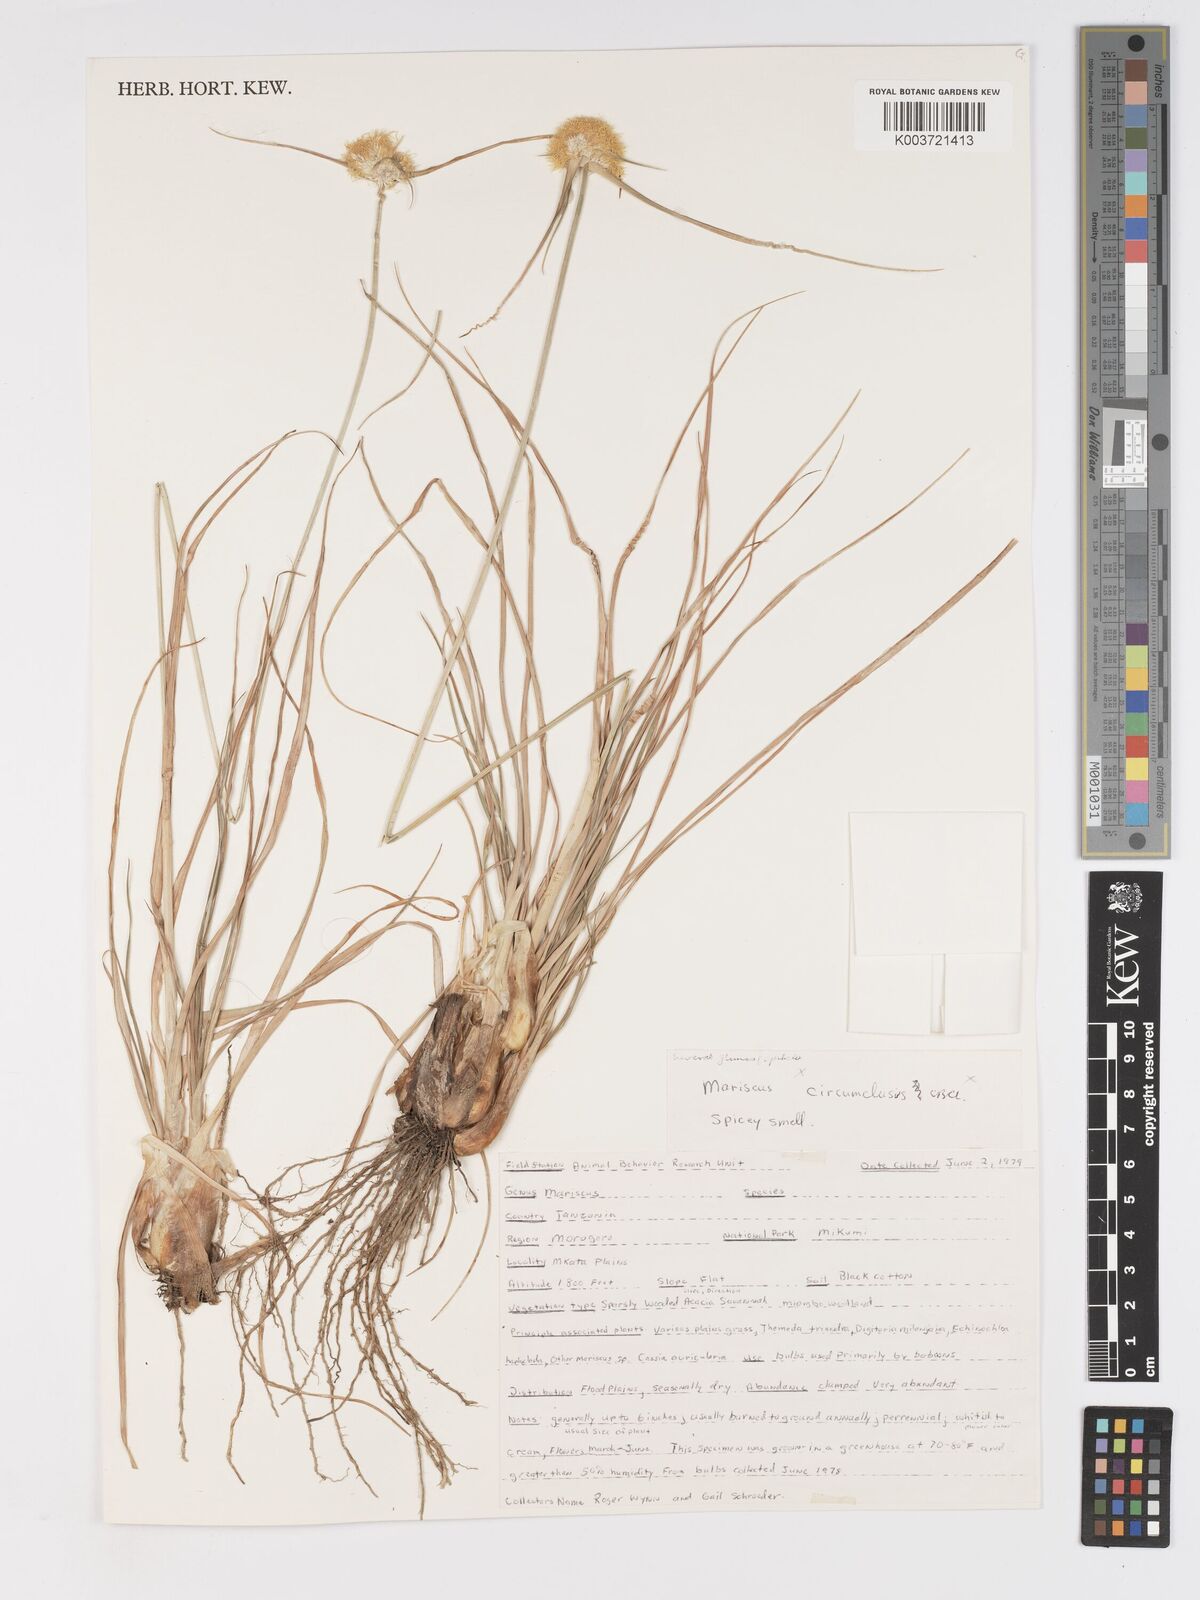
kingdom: Plantae
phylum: Tracheophyta
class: Liliopsida
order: Poales
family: Cyperaceae
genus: Cyperus
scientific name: Cyperus mollipes
